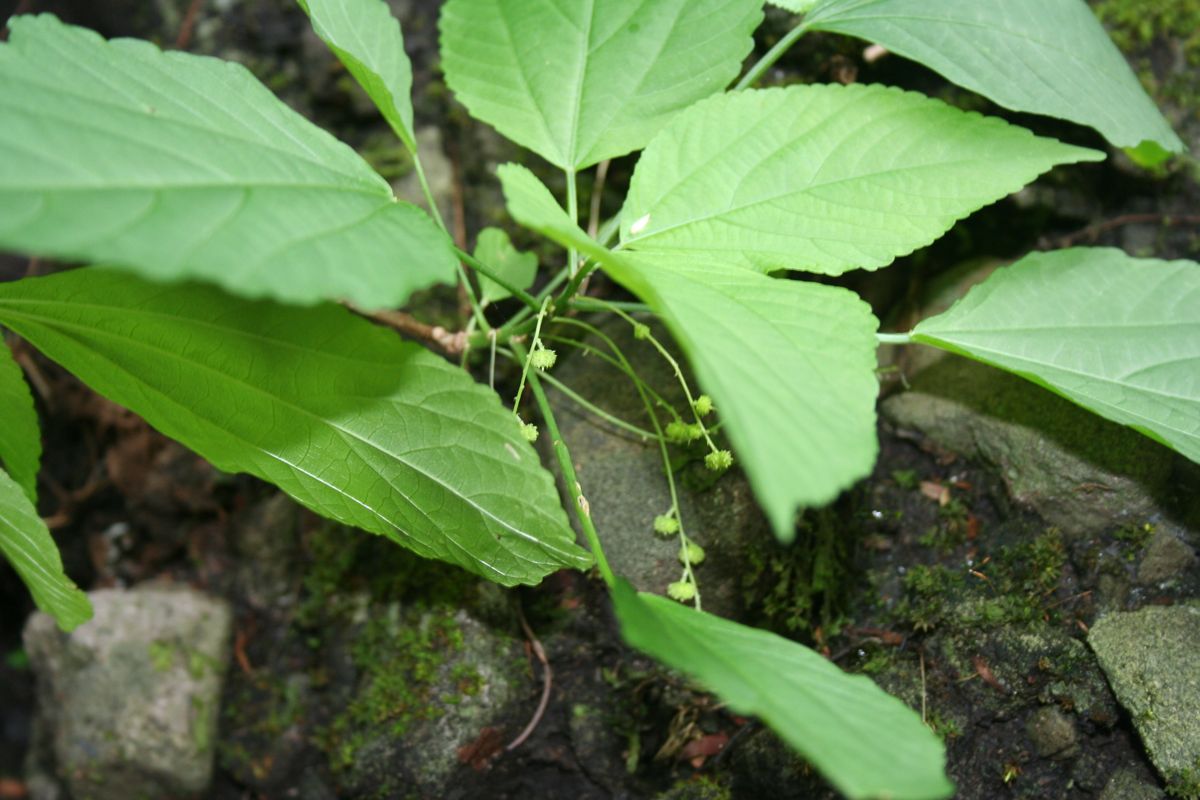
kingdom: Plantae
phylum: Tracheophyta
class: Magnoliopsida
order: Malpighiales
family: Euphorbiaceae
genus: Acalypha
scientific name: Acalypha villosa
